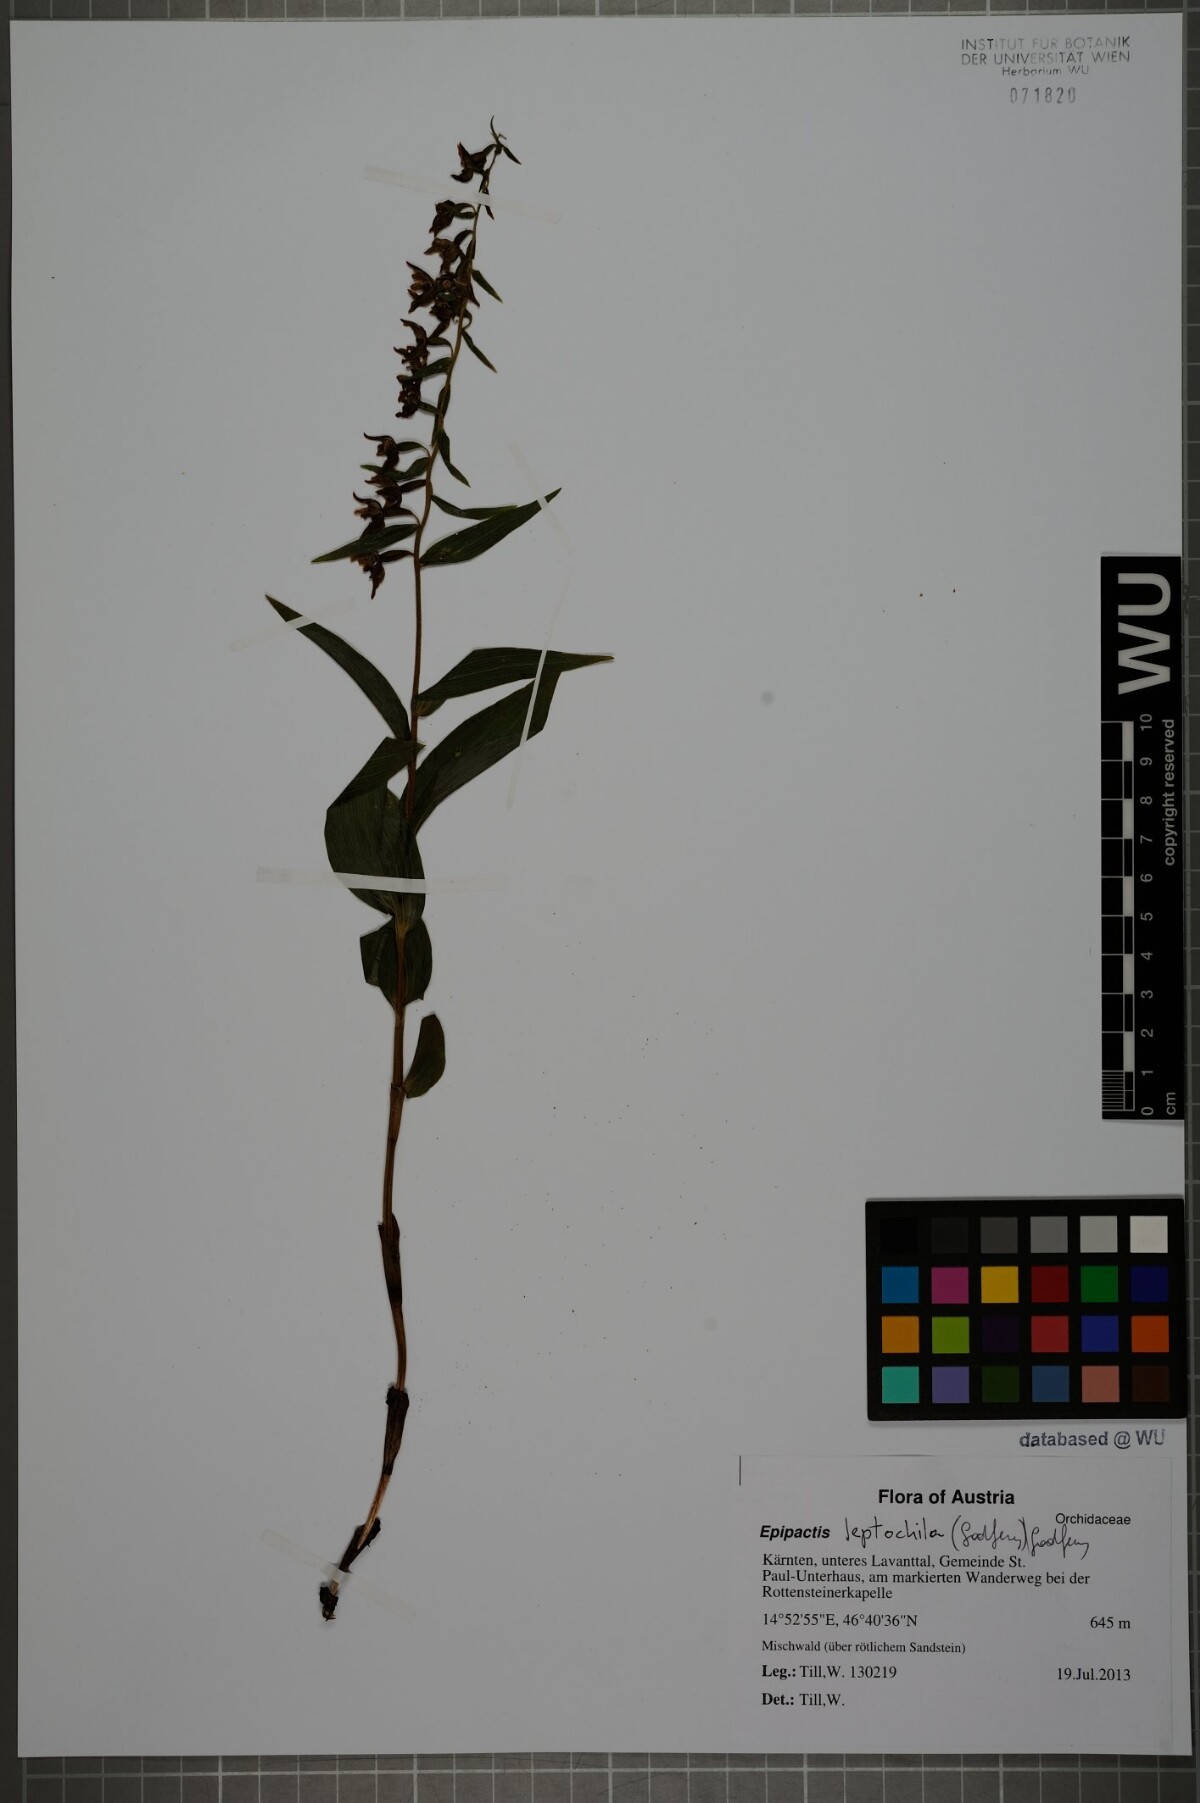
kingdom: Plantae
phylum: Tracheophyta
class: Liliopsida
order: Asparagales
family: Orchidaceae
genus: Epipactis
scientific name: Epipactis leptochila
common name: Narrow-lipped helleborine
